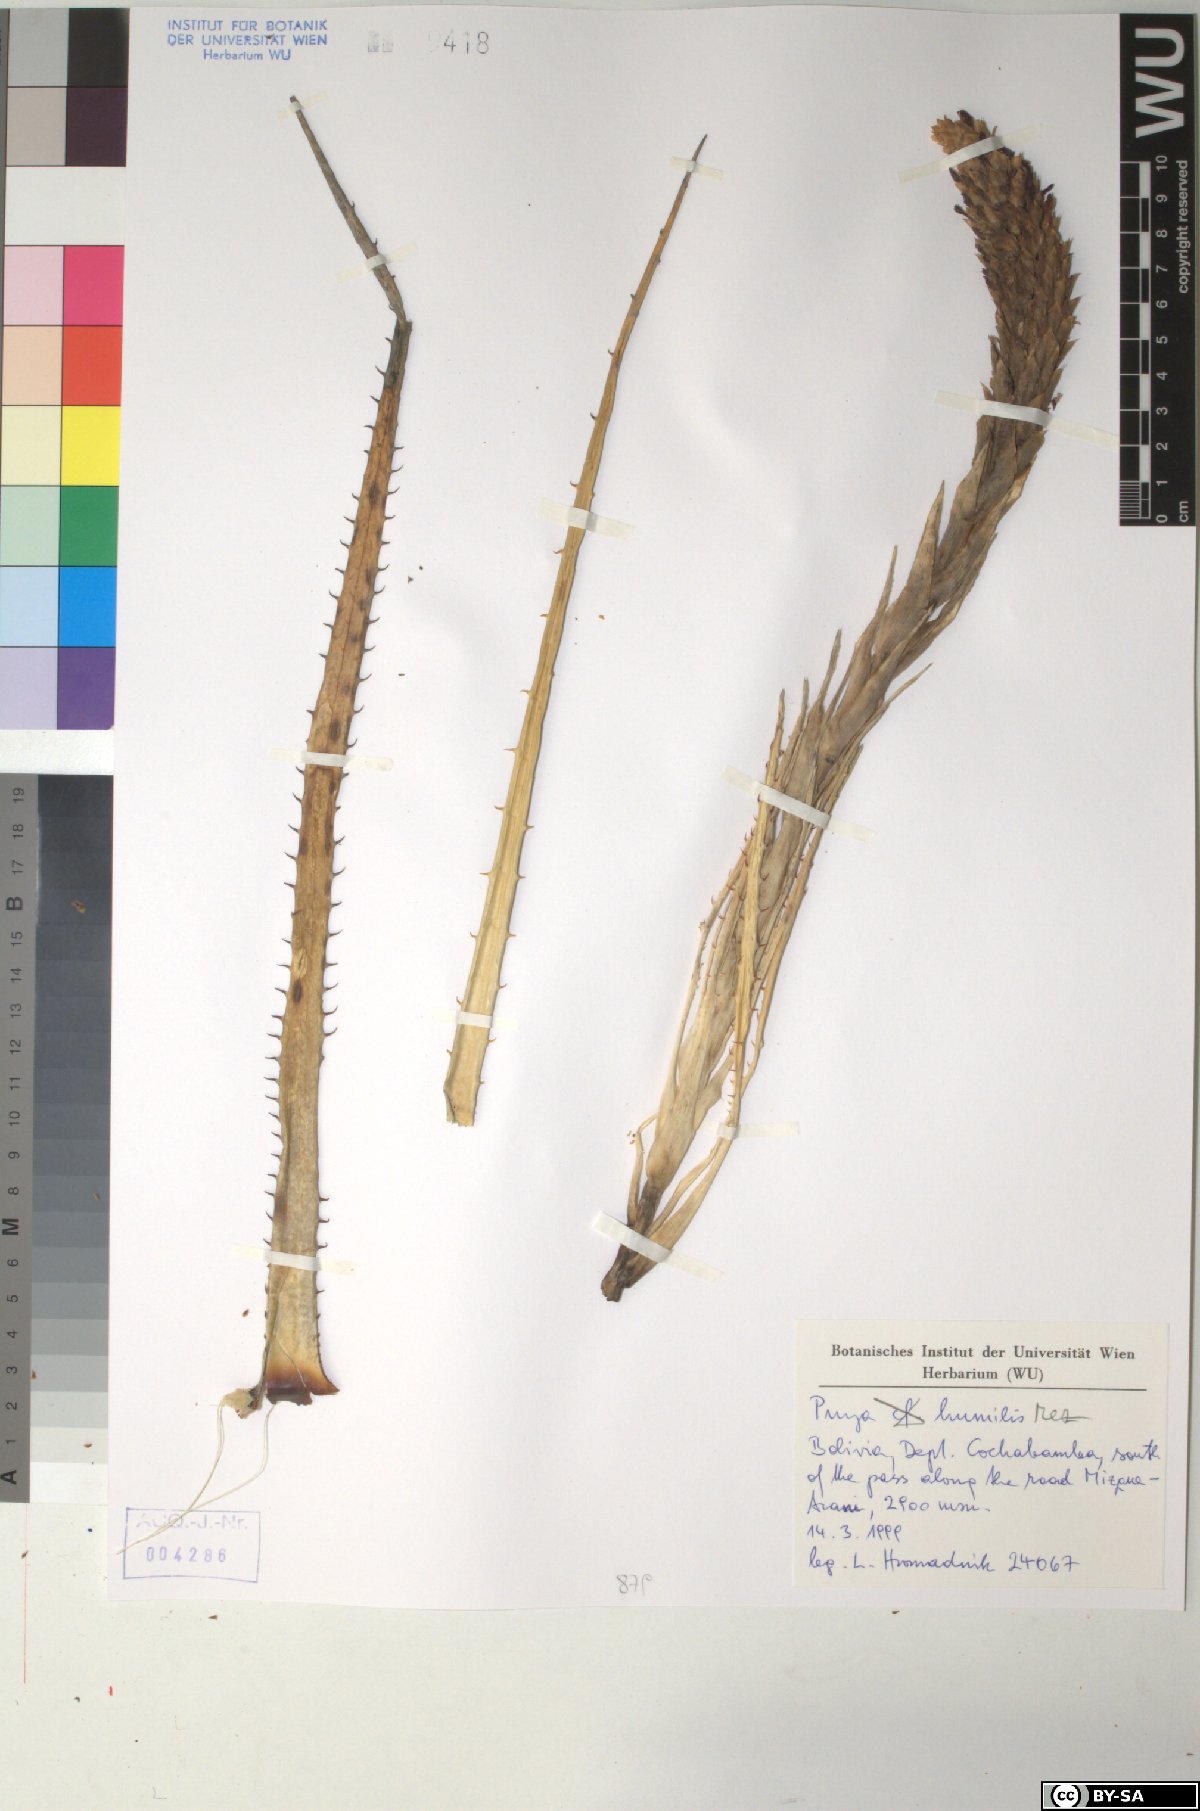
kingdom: Plantae
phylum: Tracheophyta
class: Liliopsida
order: Poales
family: Bromeliaceae
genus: Puya
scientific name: Puya humilis
